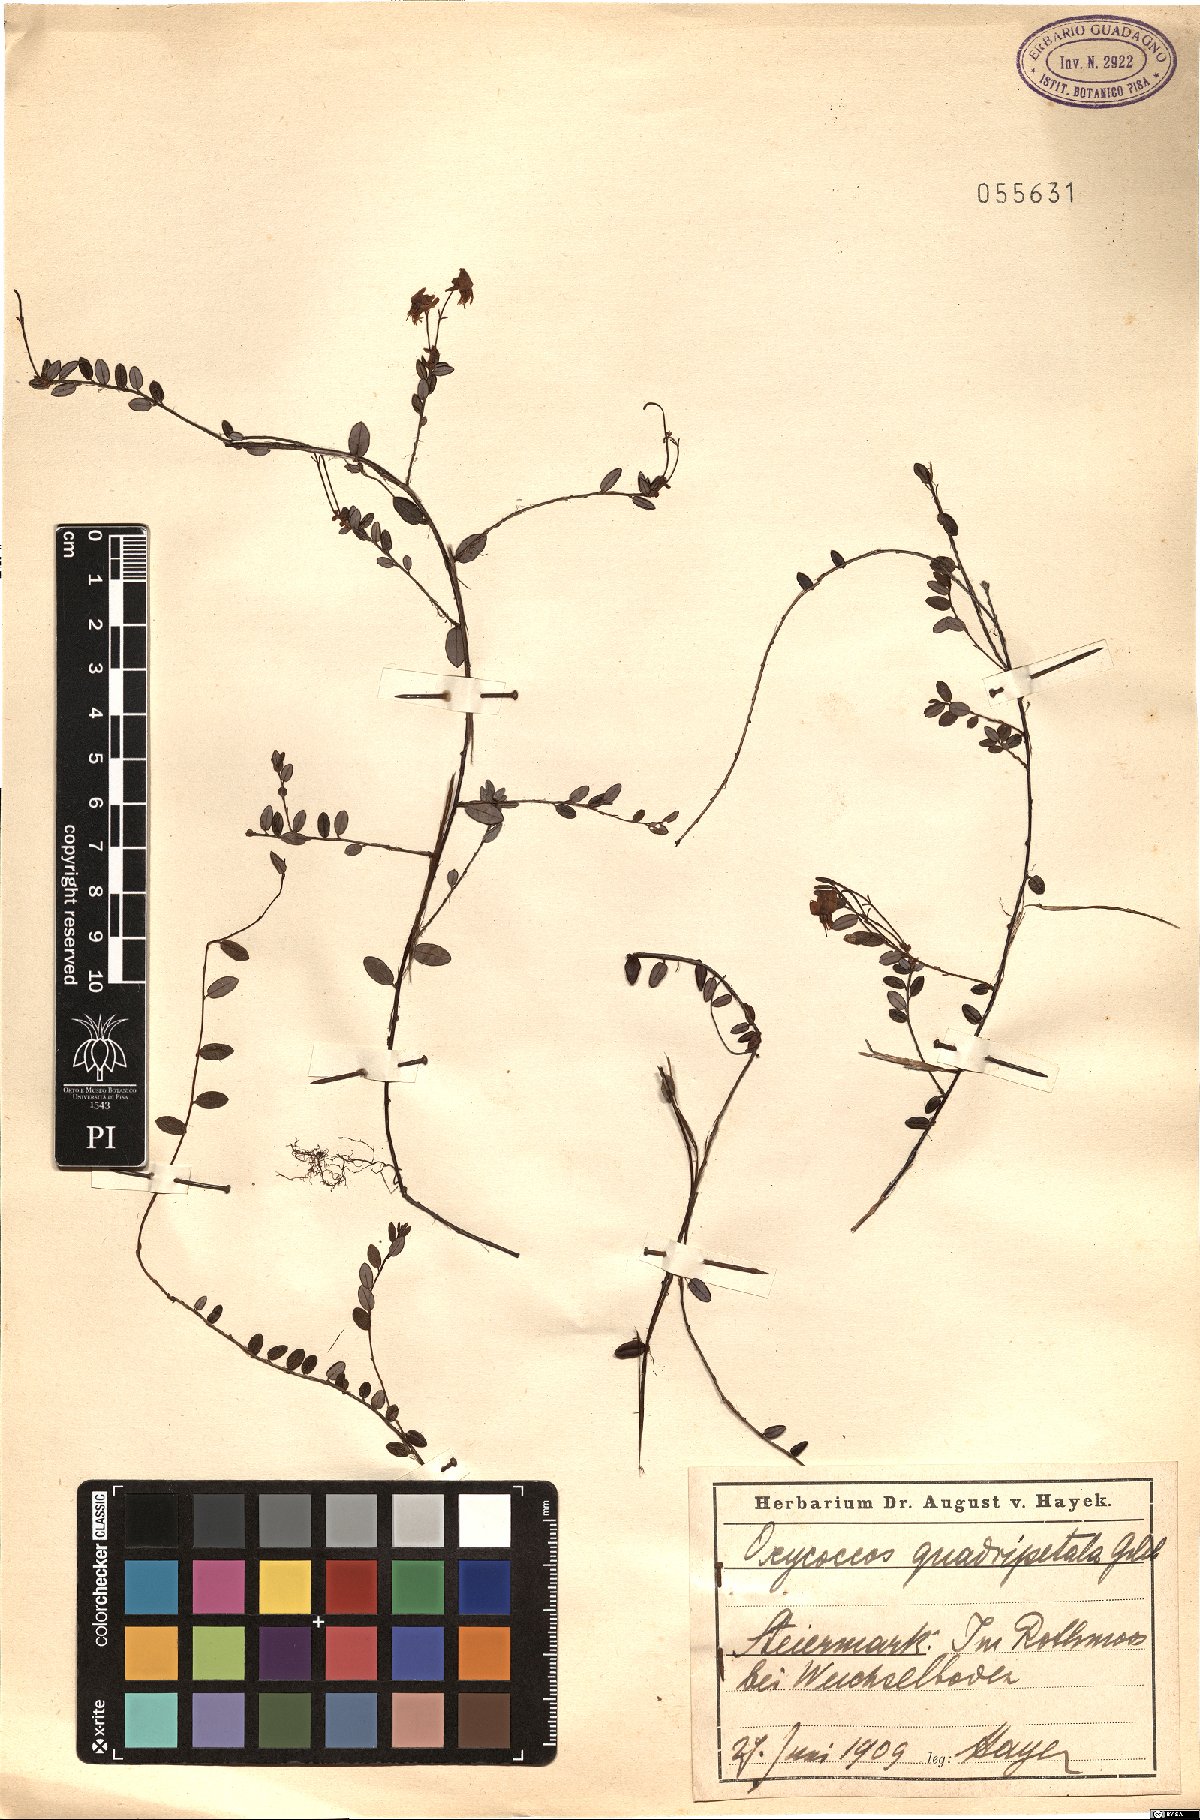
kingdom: Plantae
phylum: Tracheophyta
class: Magnoliopsida
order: Ericales
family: Ericaceae
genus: Vaccinium
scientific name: Vaccinium oxycoccos
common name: Cranberry
